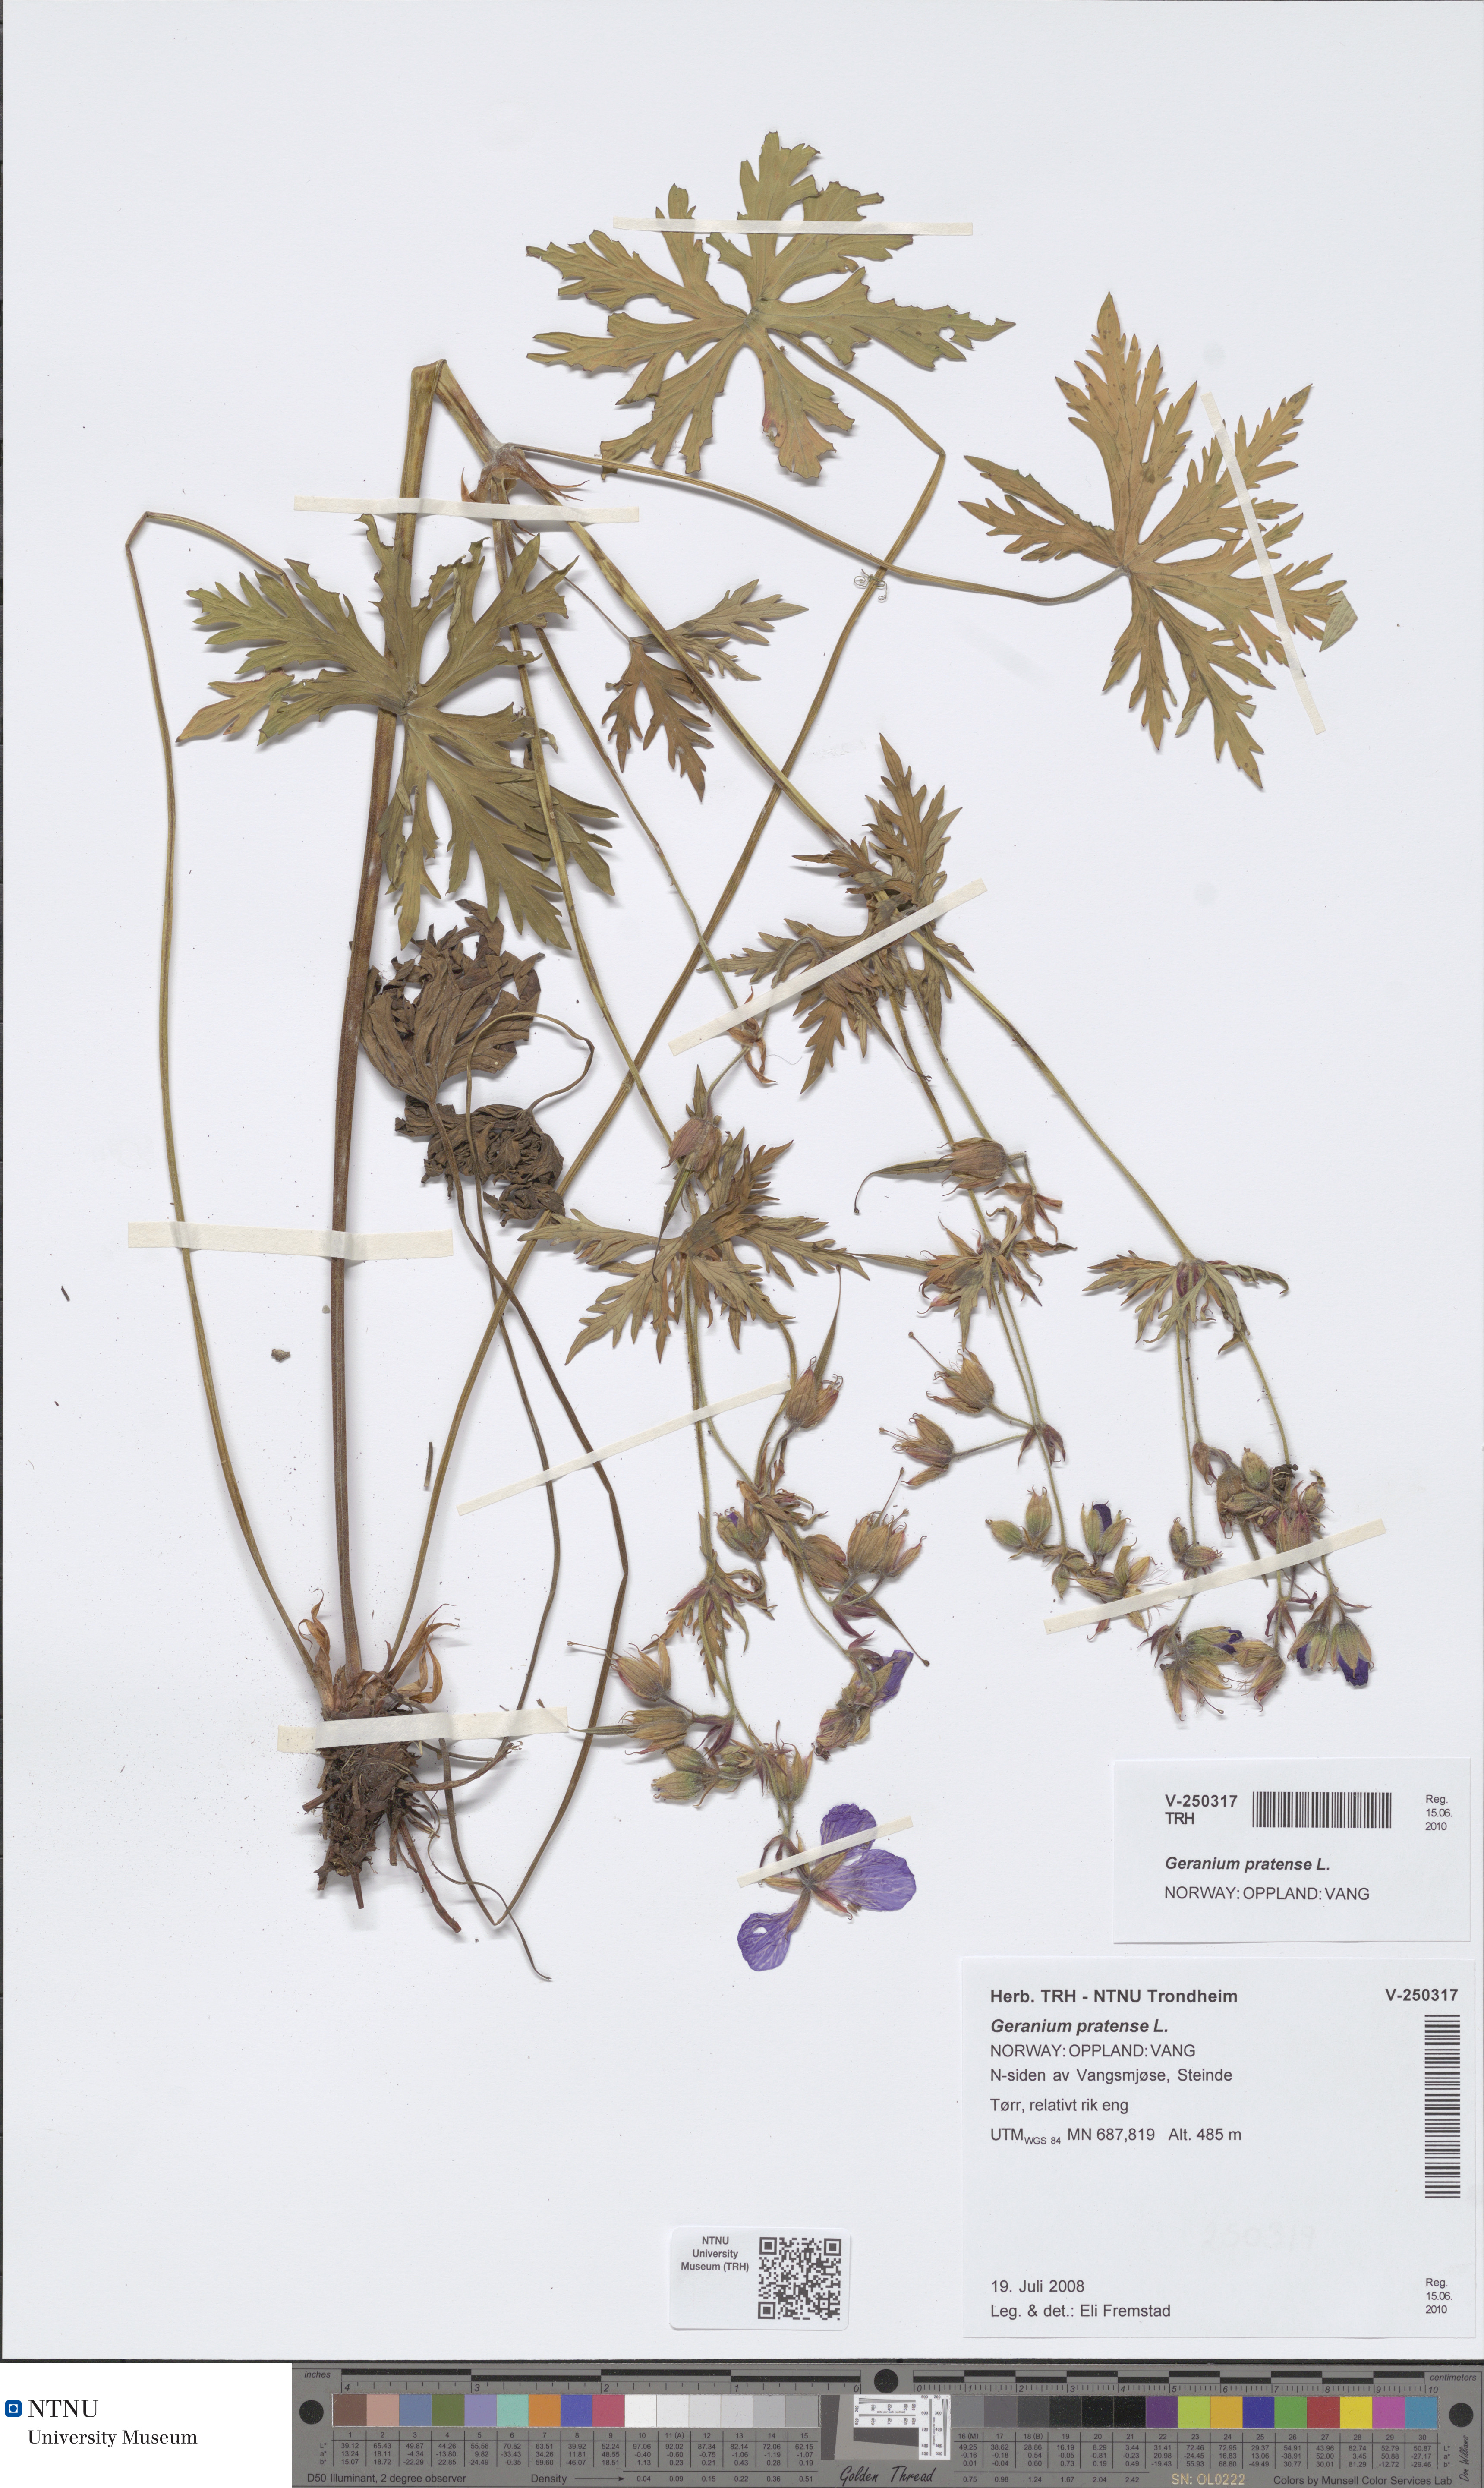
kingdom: Plantae
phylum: Tracheophyta
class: Magnoliopsida
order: Geraniales
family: Geraniaceae
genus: Geranium
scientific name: Geranium pratense
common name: Meadow crane's-bill
